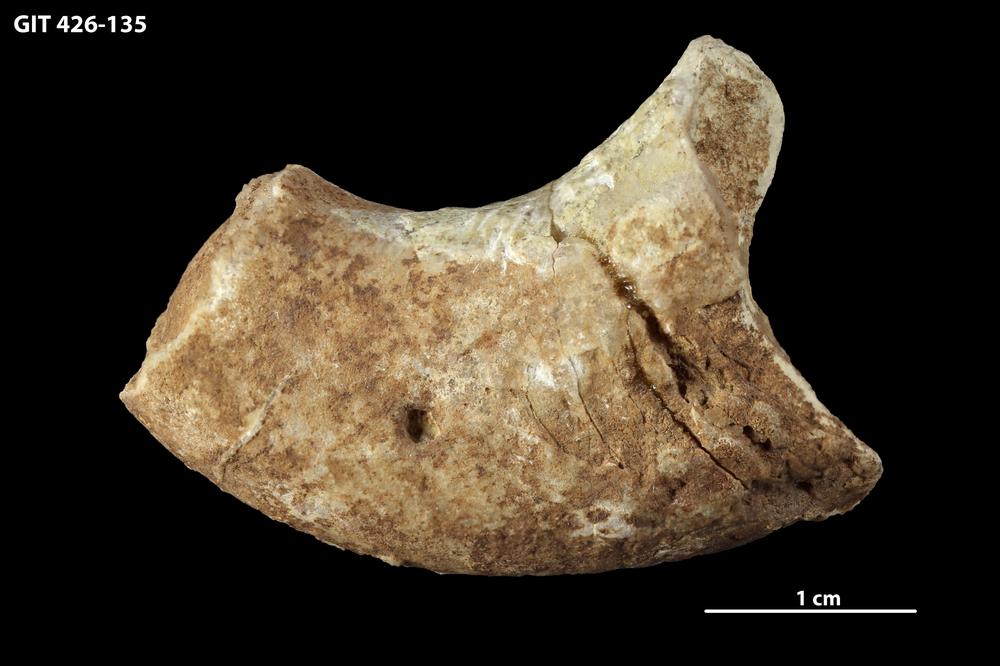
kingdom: Animalia
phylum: Mollusca
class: Cephalopoda
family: Barrandeoceratidae
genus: Vasalemmoceras
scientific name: Vasalemmoceras tolerabile
